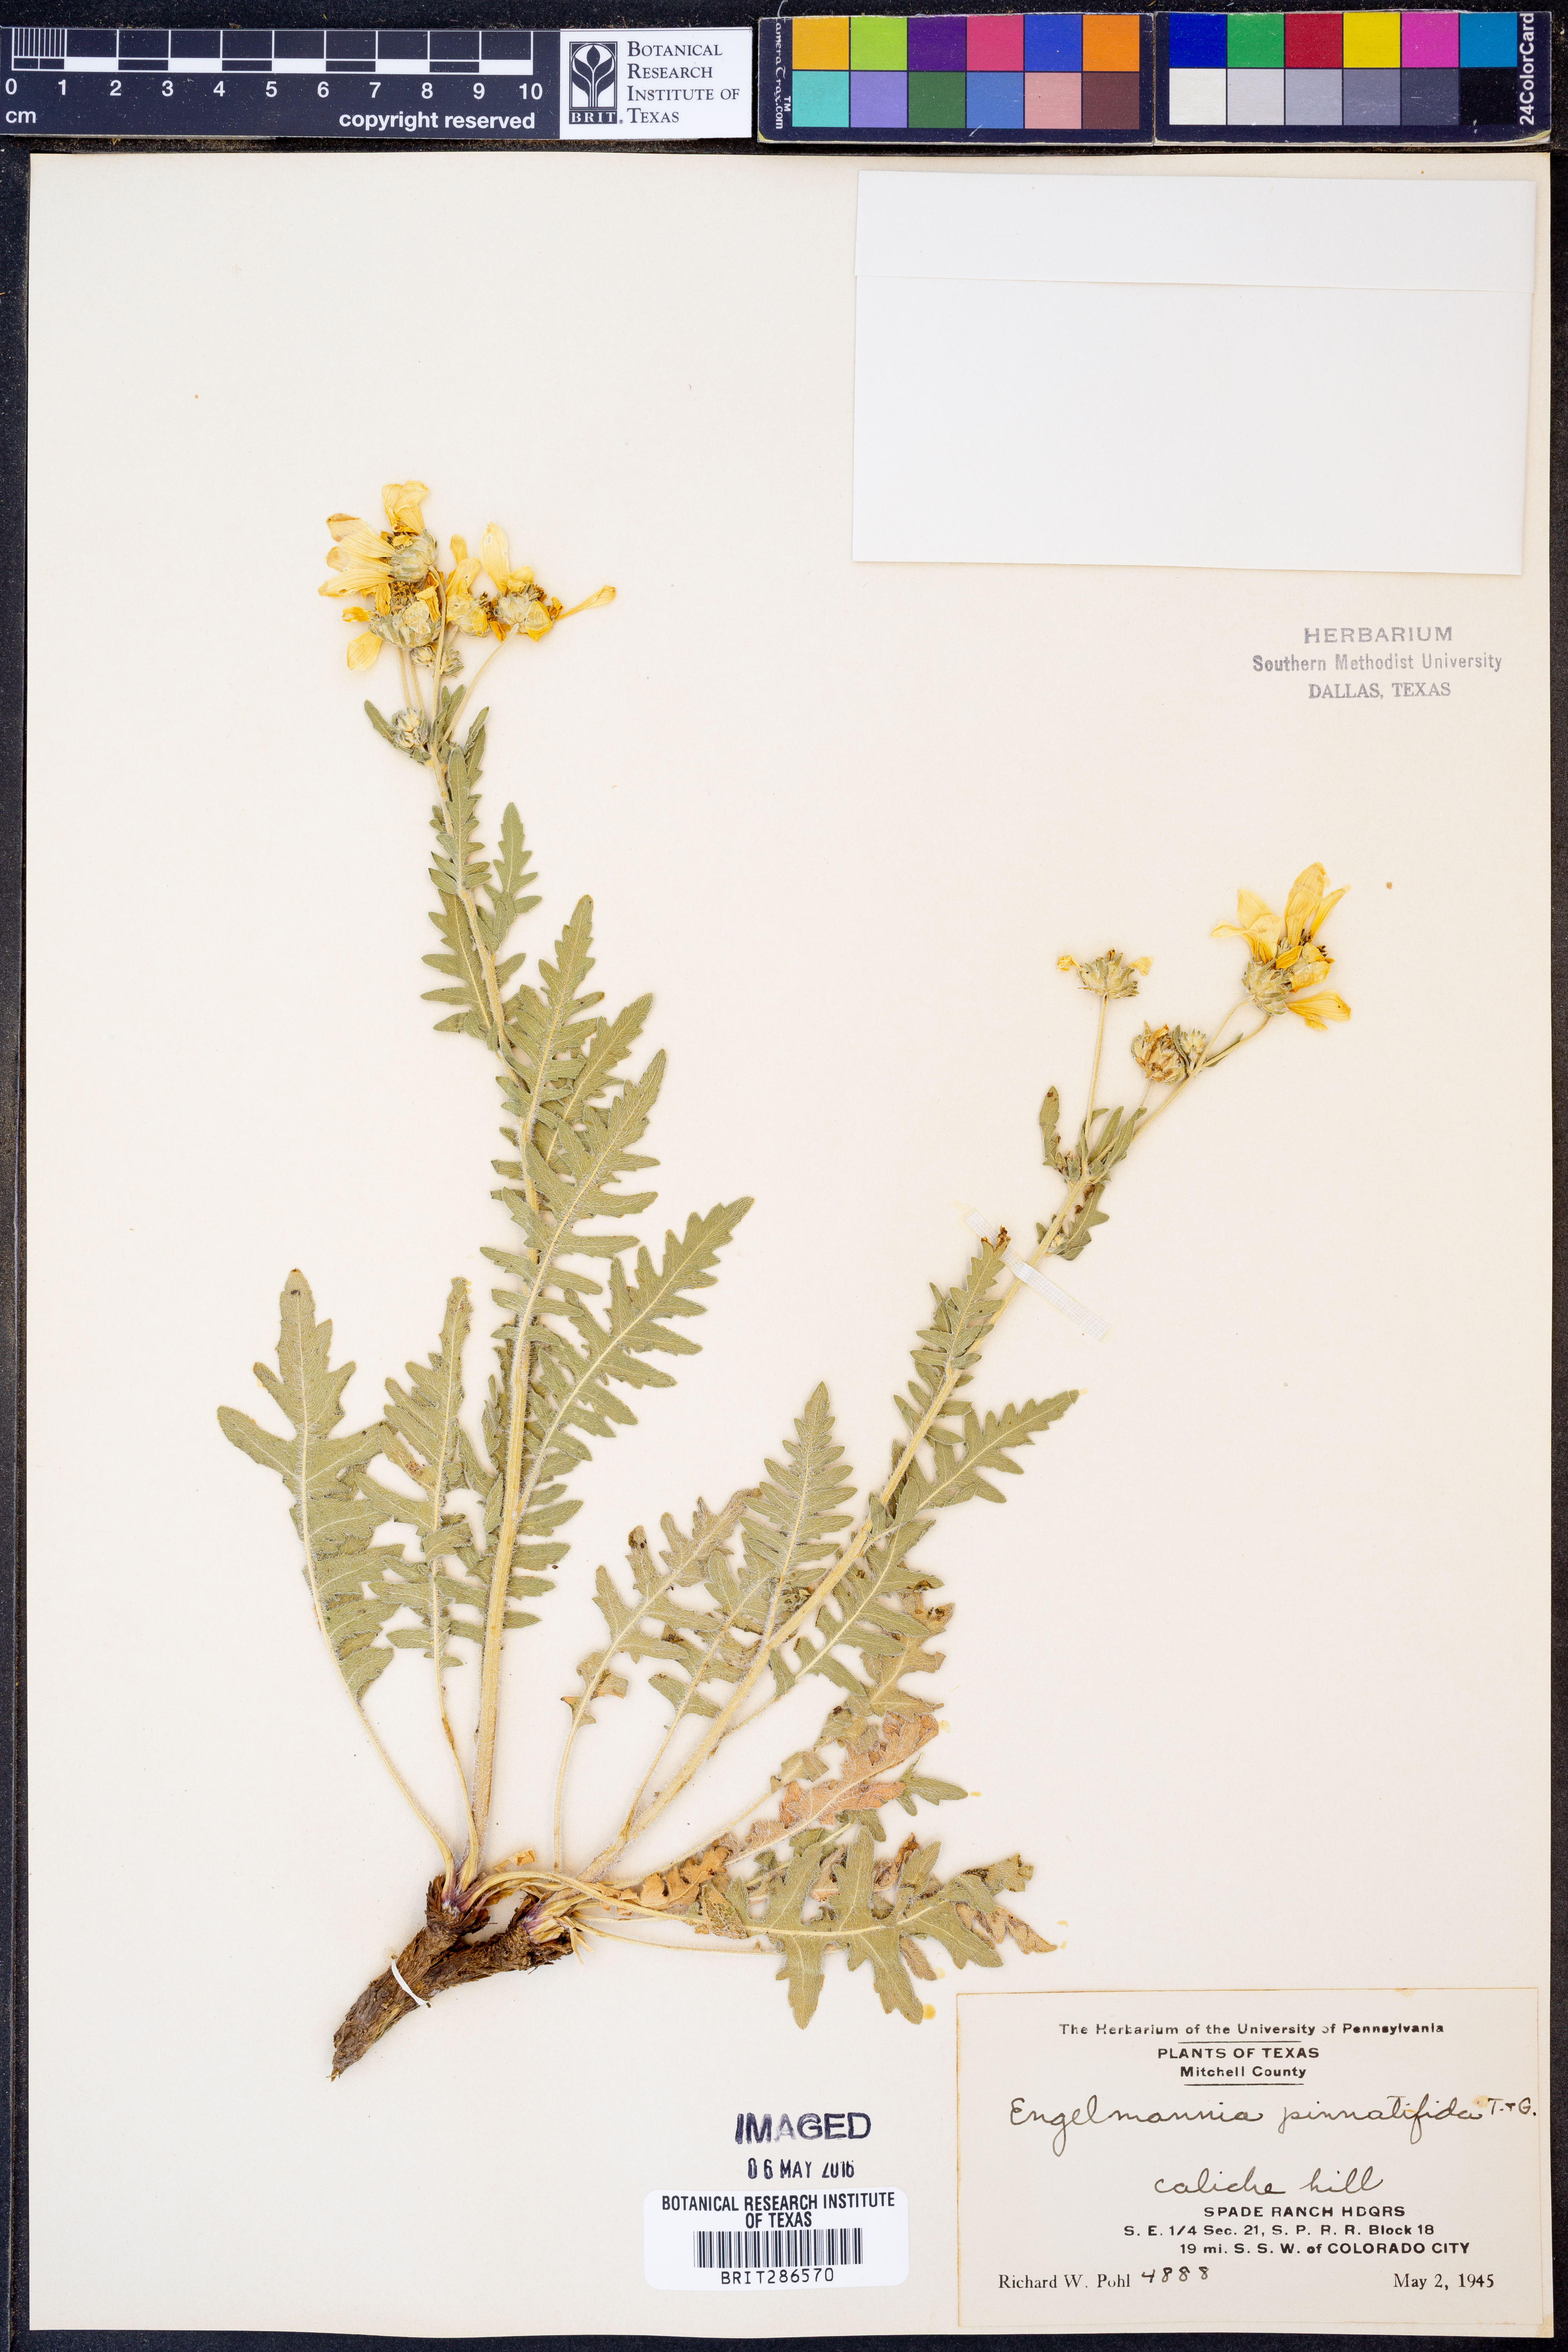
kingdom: Plantae
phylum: Tracheophyta
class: Magnoliopsida
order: Asterales
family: Asteraceae
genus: Engelmannia
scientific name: Engelmannia peristenia
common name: Engelmann's daisy
